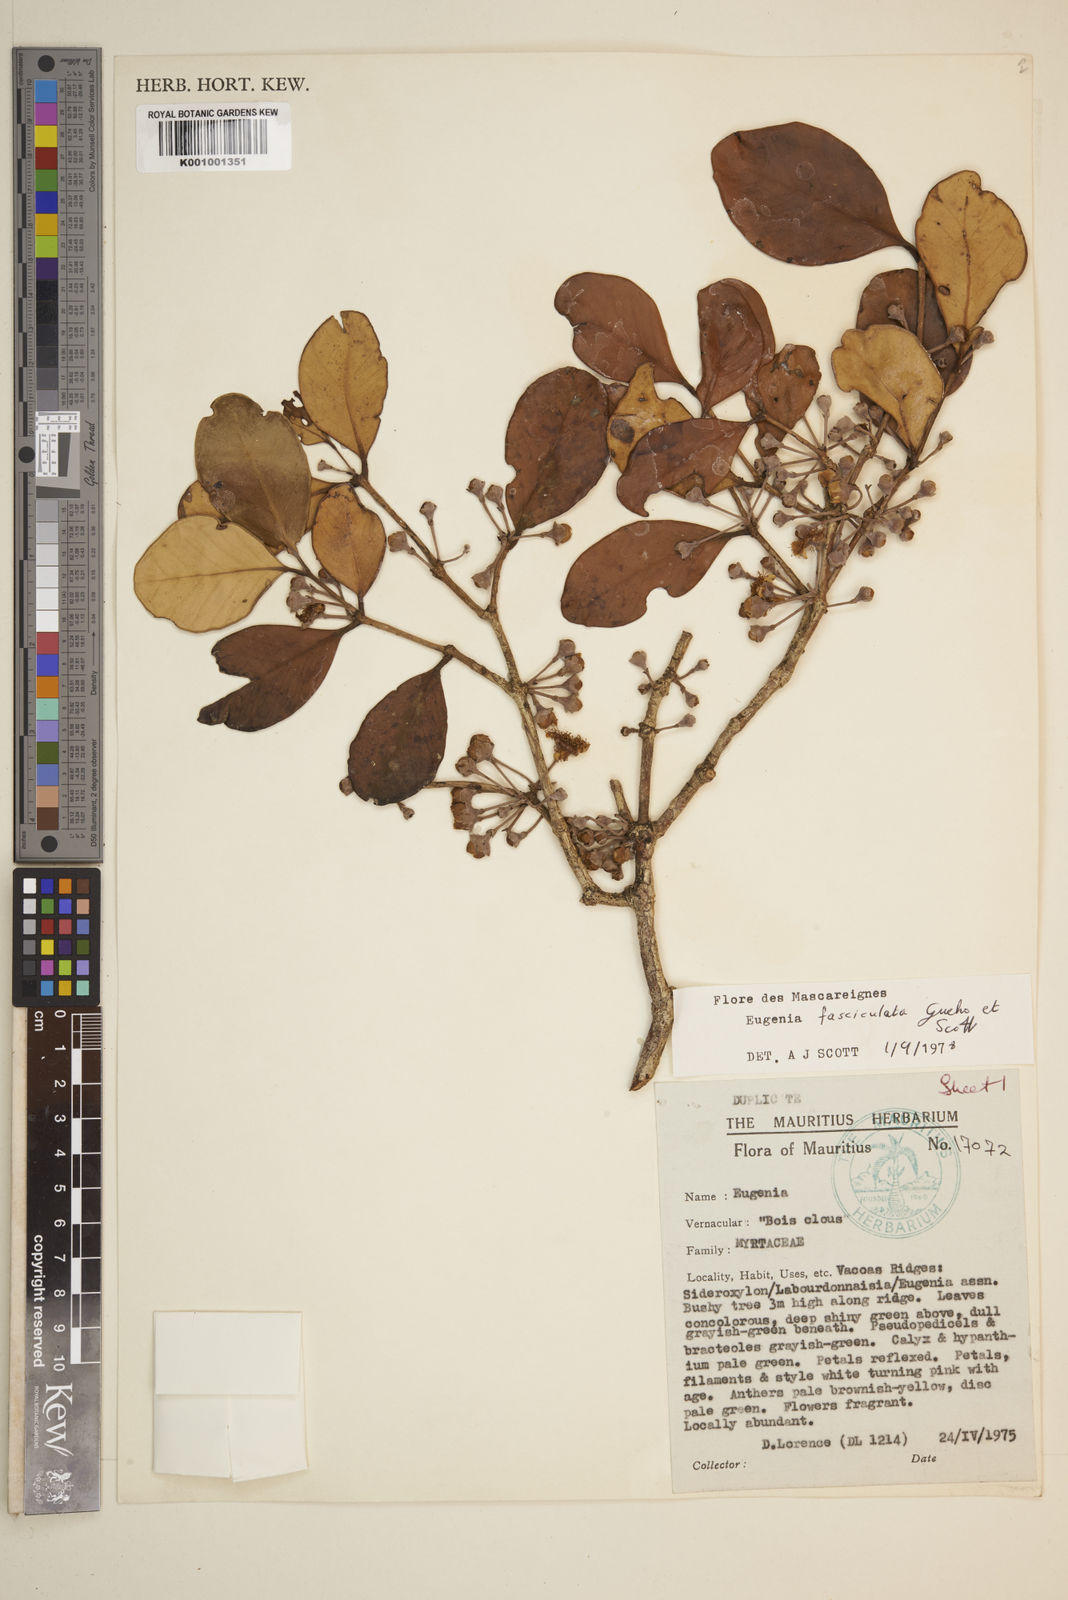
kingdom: Plantae
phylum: Tracheophyta
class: Magnoliopsida
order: Myrtales
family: Myrtaceae
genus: Eugenia
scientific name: Eugenia roxburghii
